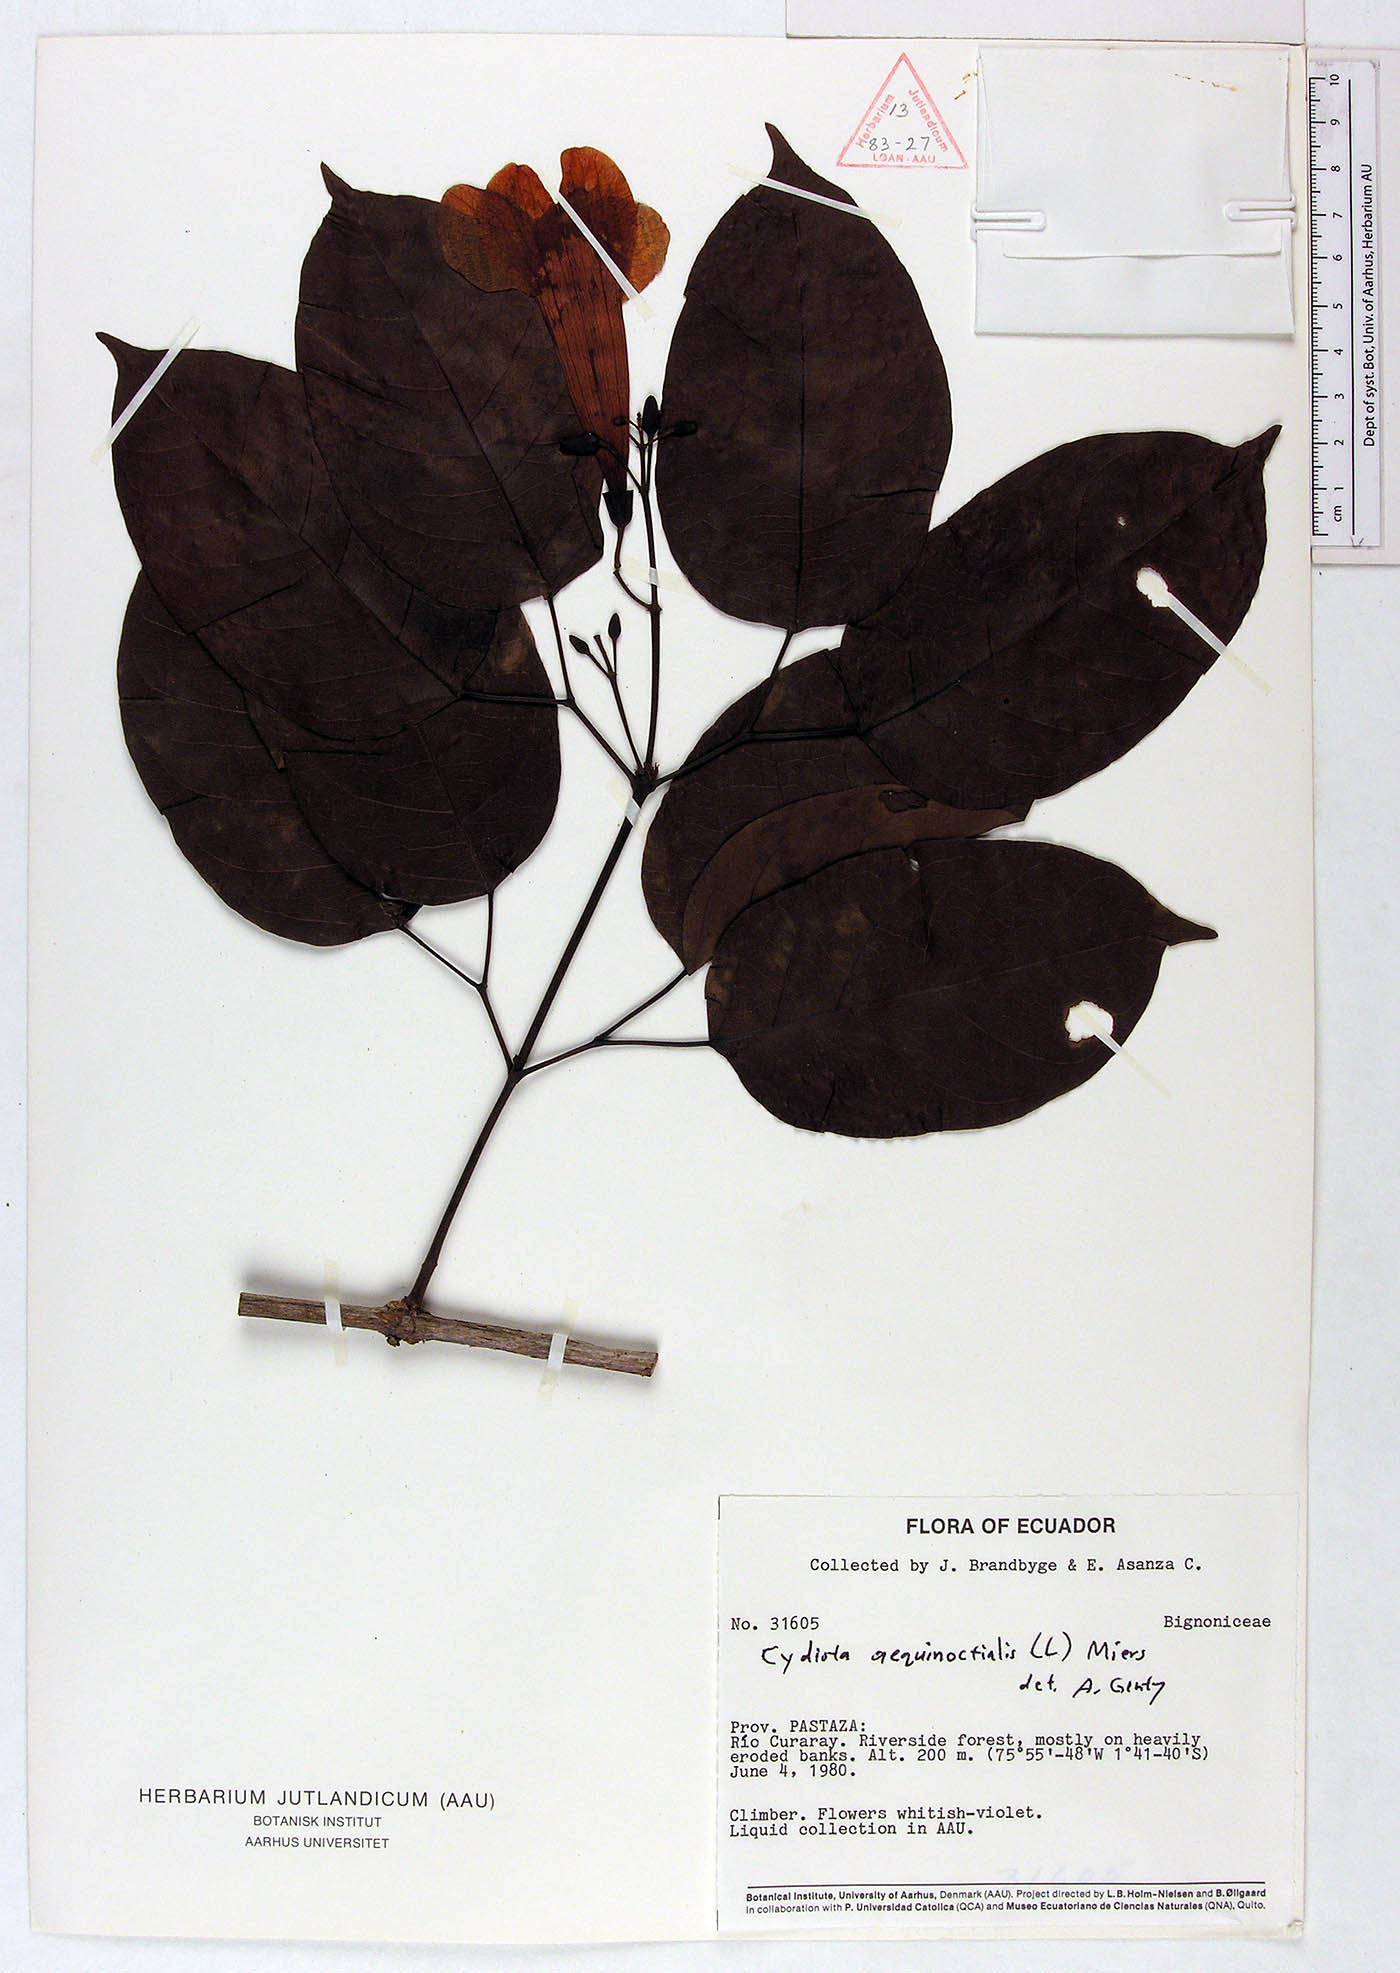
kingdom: Plantae
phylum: Tracheophyta
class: Magnoliopsida
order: Lamiales
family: Bignoniaceae
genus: Bignonia
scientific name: Bignonia aequinoctialis
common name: Garlicvine
